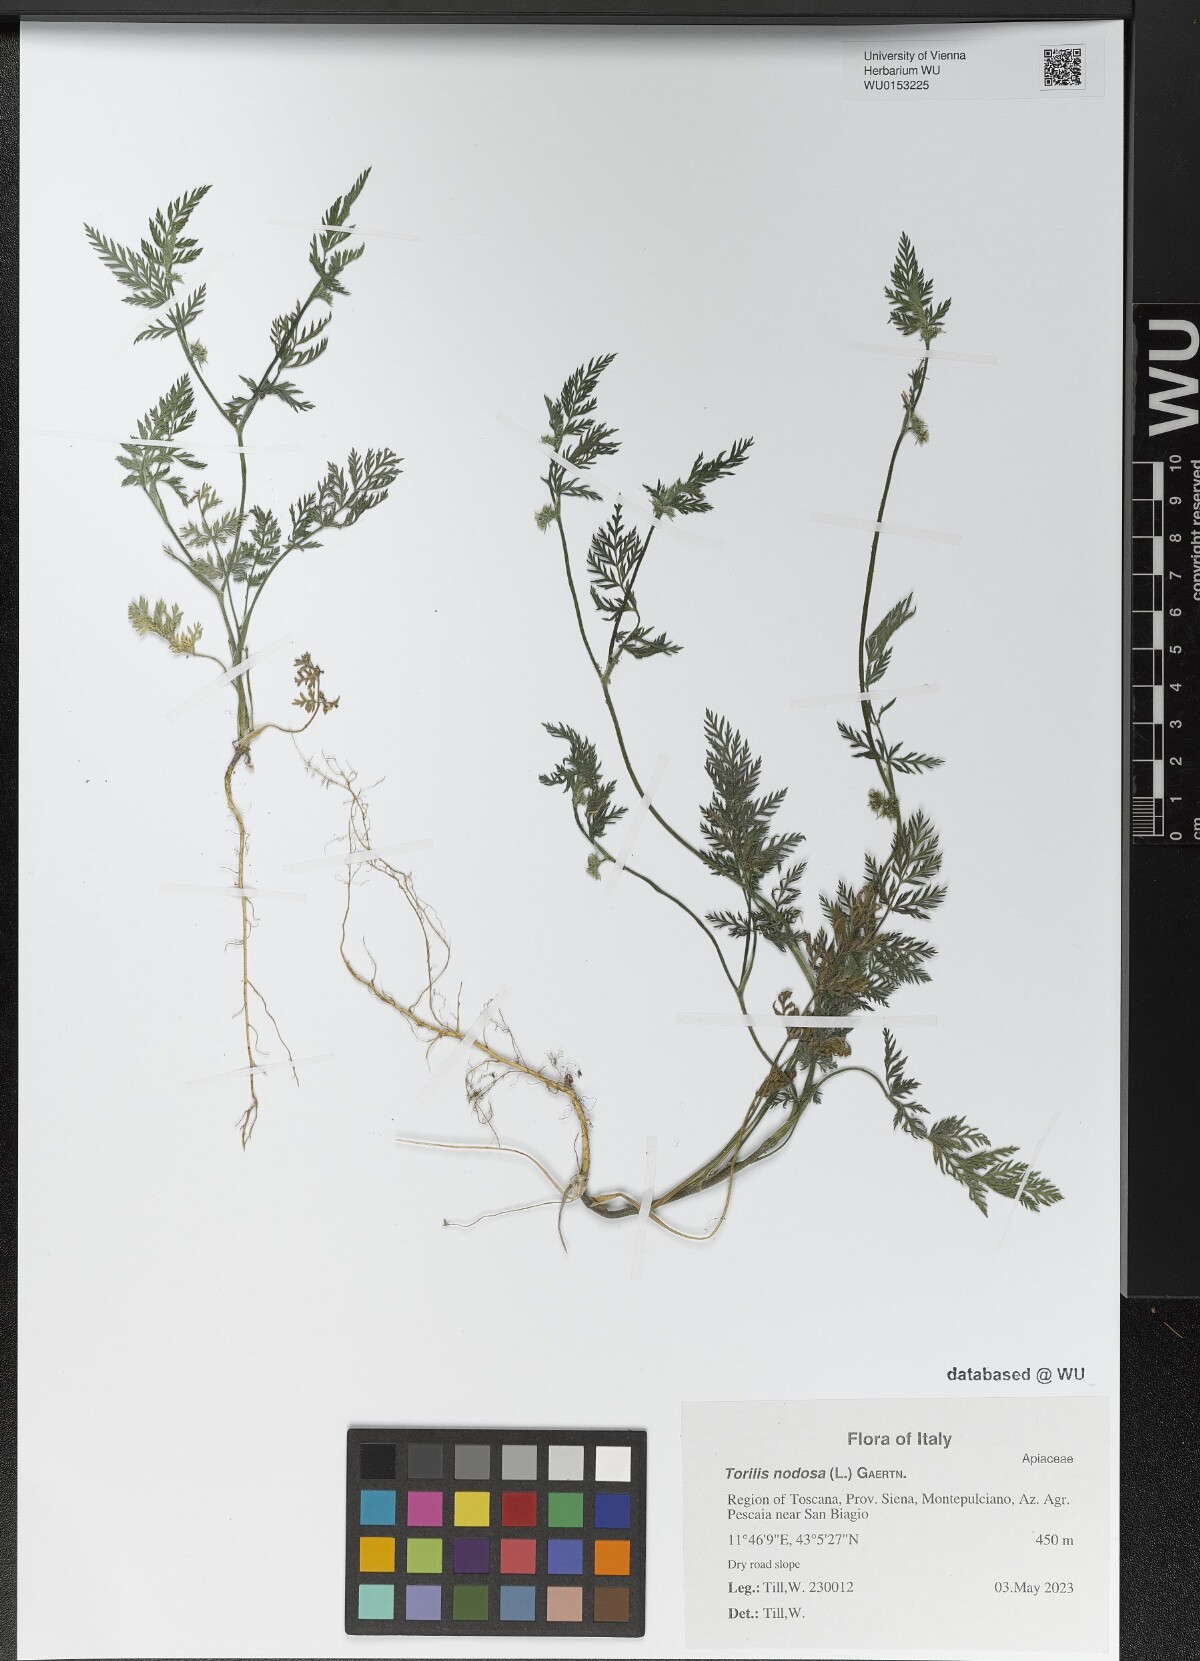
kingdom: Plantae
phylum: Tracheophyta
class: Magnoliopsida
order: Apiales
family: Apiaceae
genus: Torilis
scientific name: Torilis nodosa
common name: Knotted hedge-parsley
